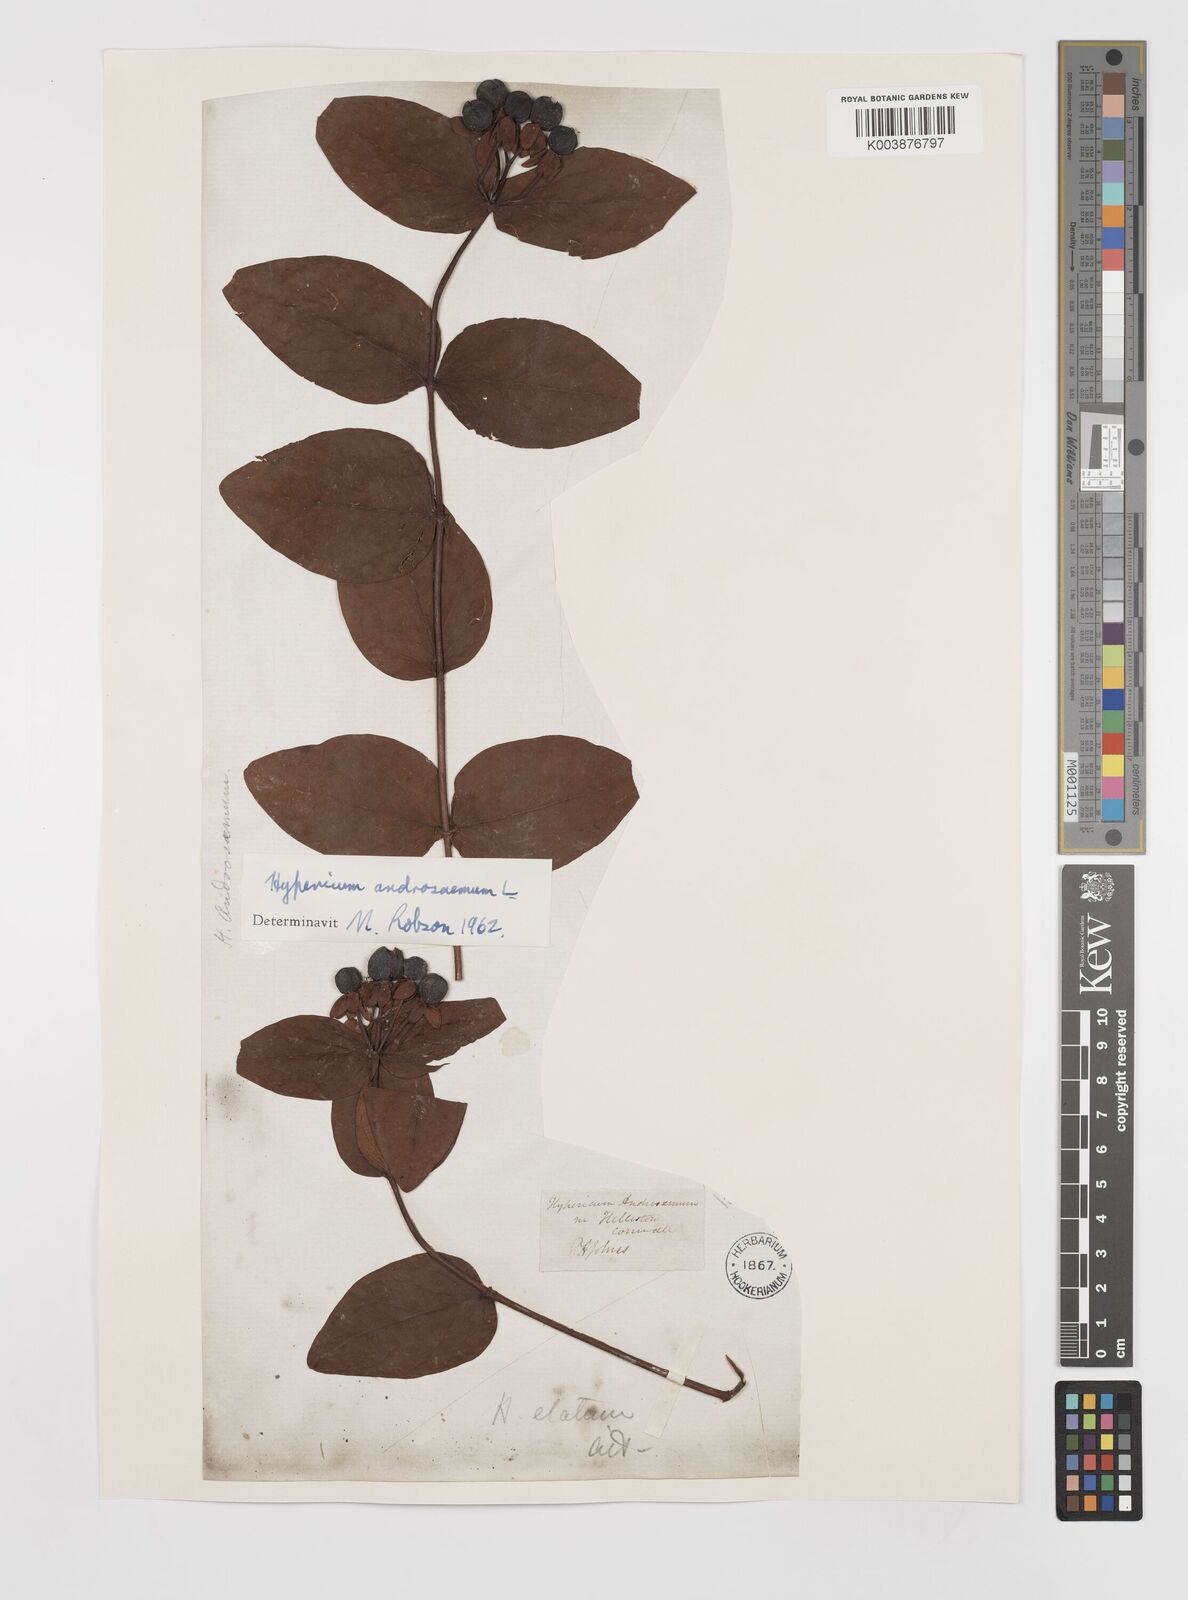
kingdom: Plantae
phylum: Tracheophyta
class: Magnoliopsida
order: Malpighiales
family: Hypericaceae
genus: Hypericum
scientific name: Hypericum androsaemum
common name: Sweet-amber
